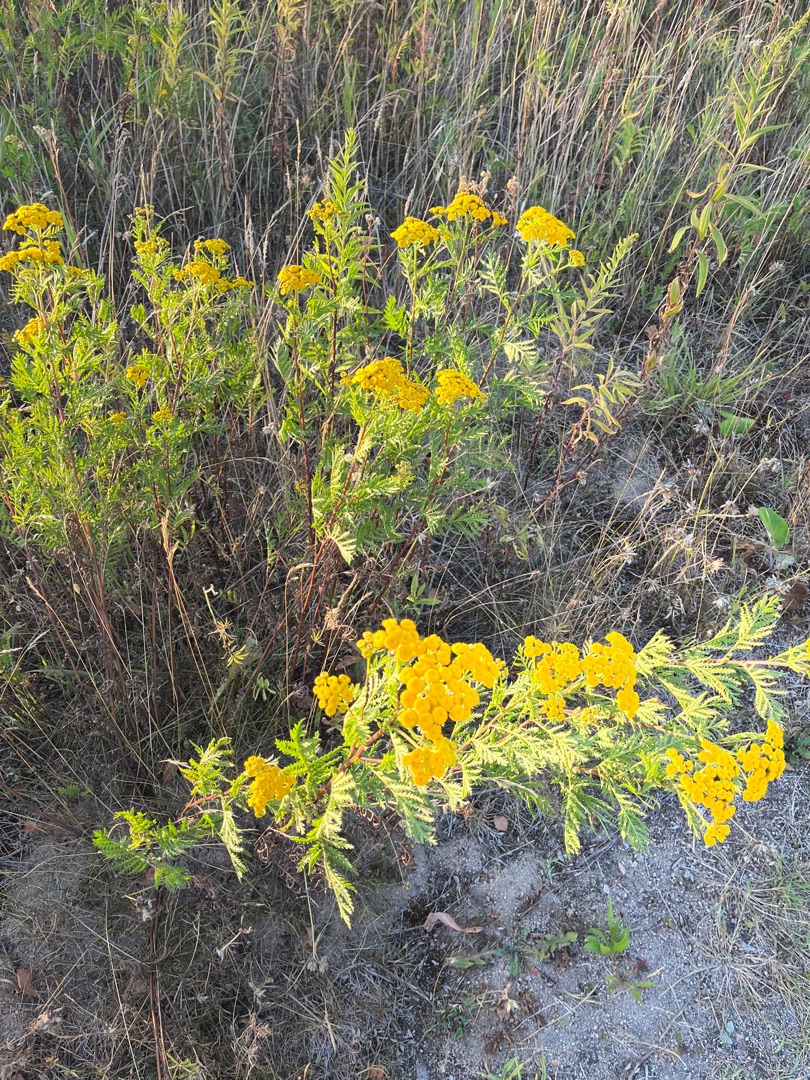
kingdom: Plantae
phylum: Tracheophyta
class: Magnoliopsida
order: Asterales
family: Asteraceae
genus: Tanacetum
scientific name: Tanacetum vulgare
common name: Rejnfan
